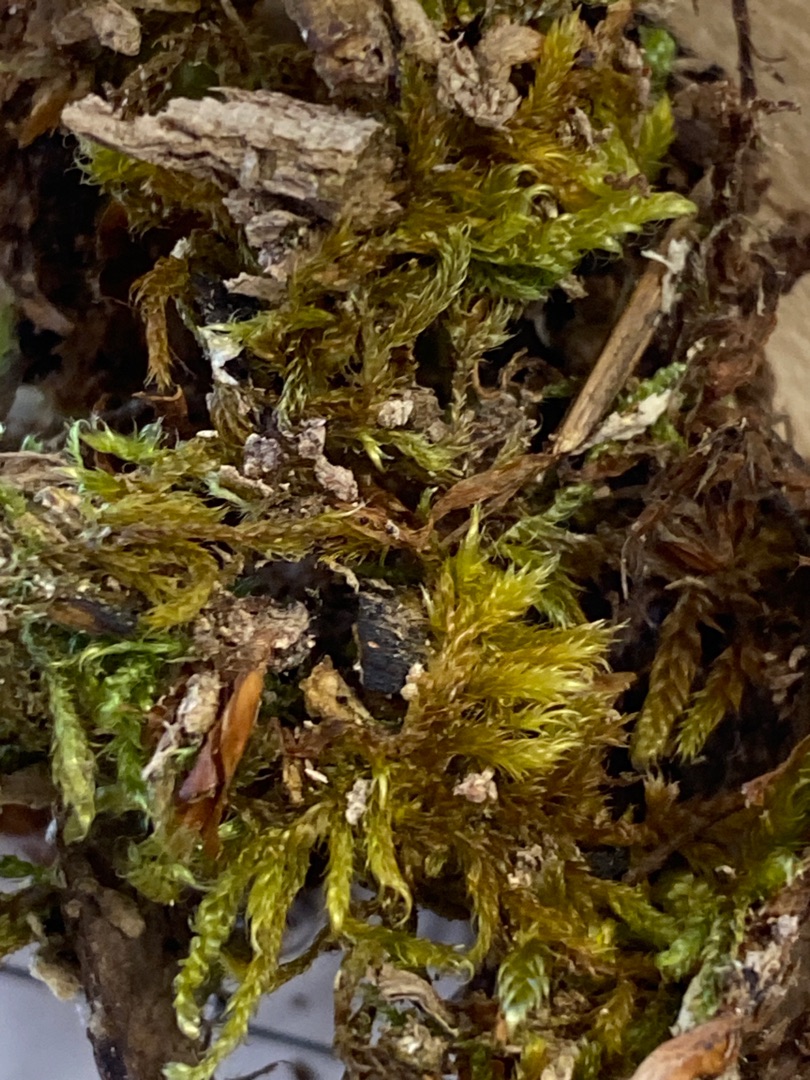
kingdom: Plantae
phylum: Bryophyta
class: Bryopsida
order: Hypnales
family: Hypnaceae
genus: Hypnum
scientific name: Hypnum cupressiforme
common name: Almindelig cypresmos
